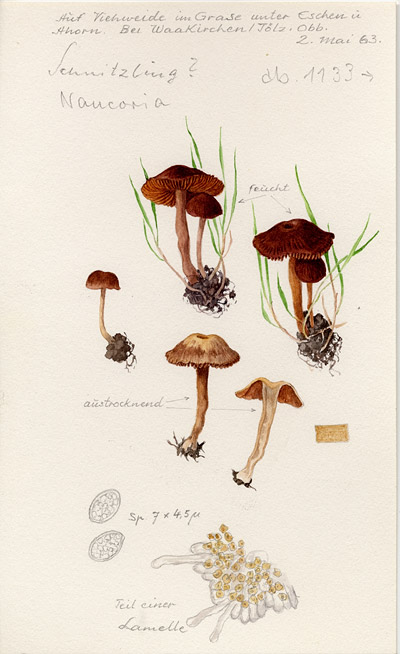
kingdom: Fungi
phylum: Basidiomycota
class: Agaricomycetes
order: Agaricales
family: Tubariaceae
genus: Tubaria
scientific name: Tubaria
